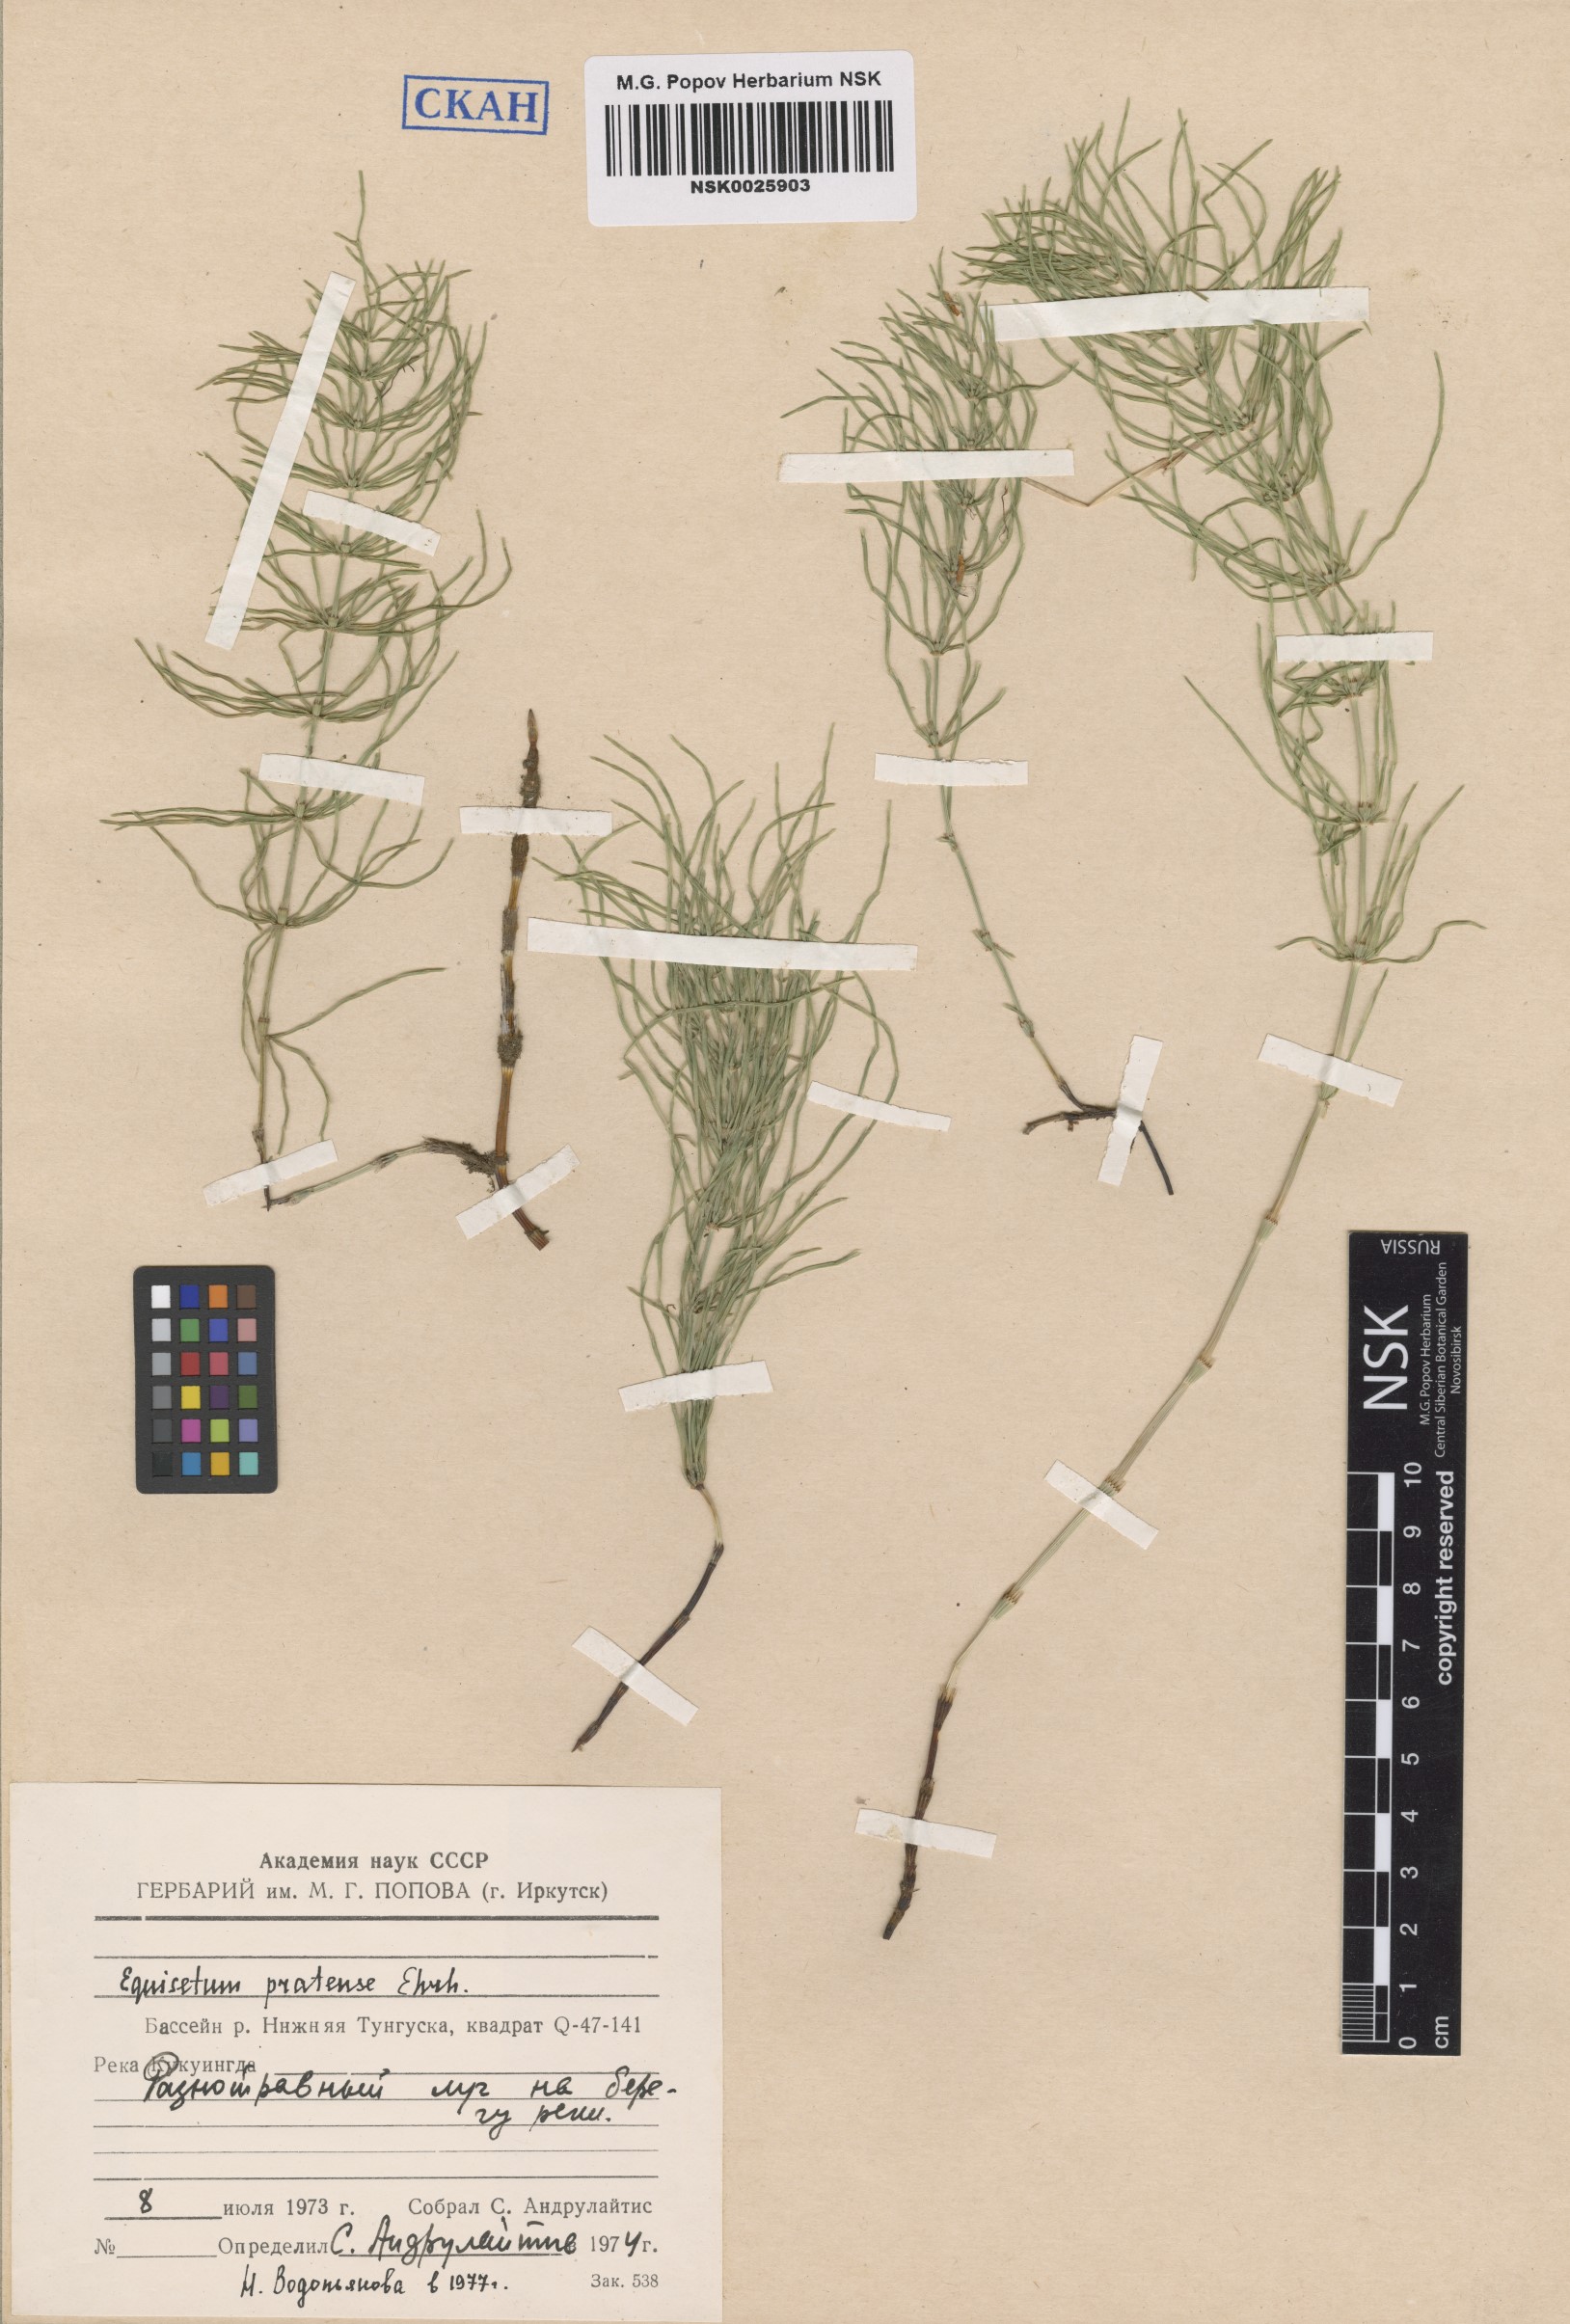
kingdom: Plantae
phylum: Tracheophyta
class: Polypodiopsida
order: Equisetales
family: Equisetaceae
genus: Equisetum
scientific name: Equisetum pratense
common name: Meadow horsetail
